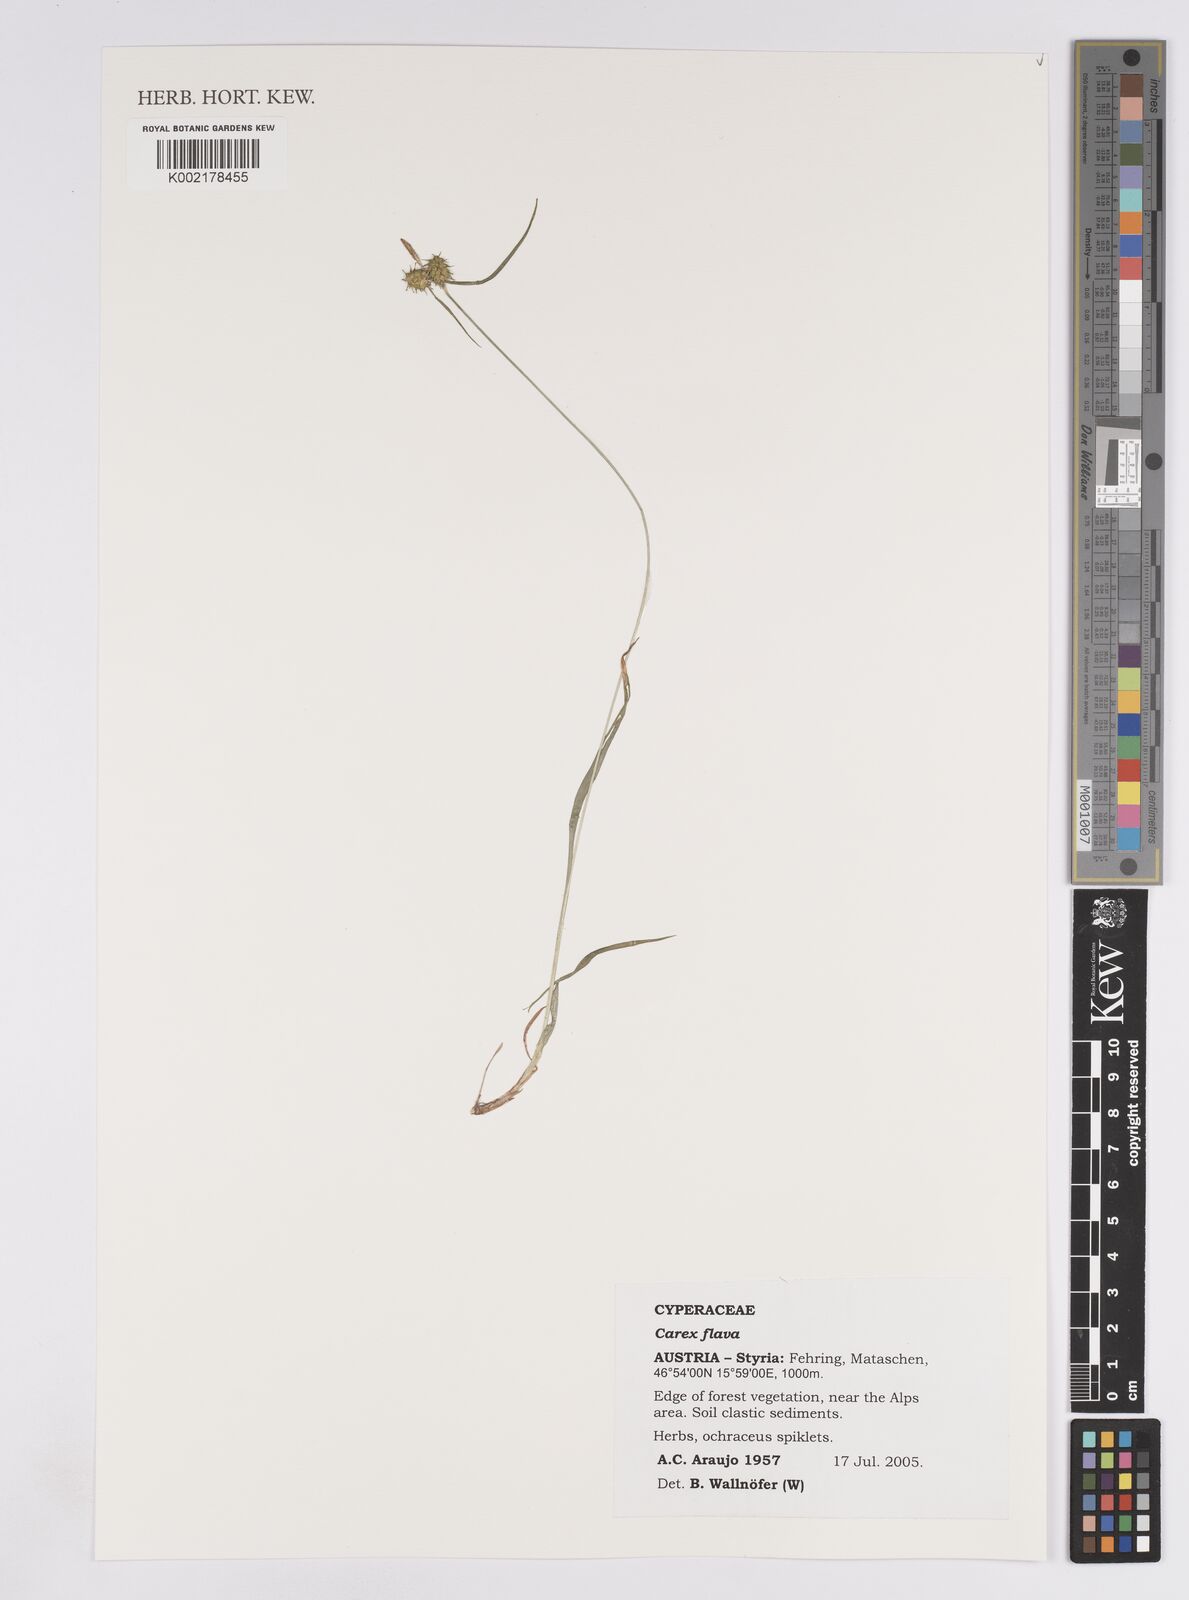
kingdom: Plantae
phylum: Tracheophyta
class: Liliopsida
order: Poales
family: Cyperaceae
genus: Carex
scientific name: Carex demissa
